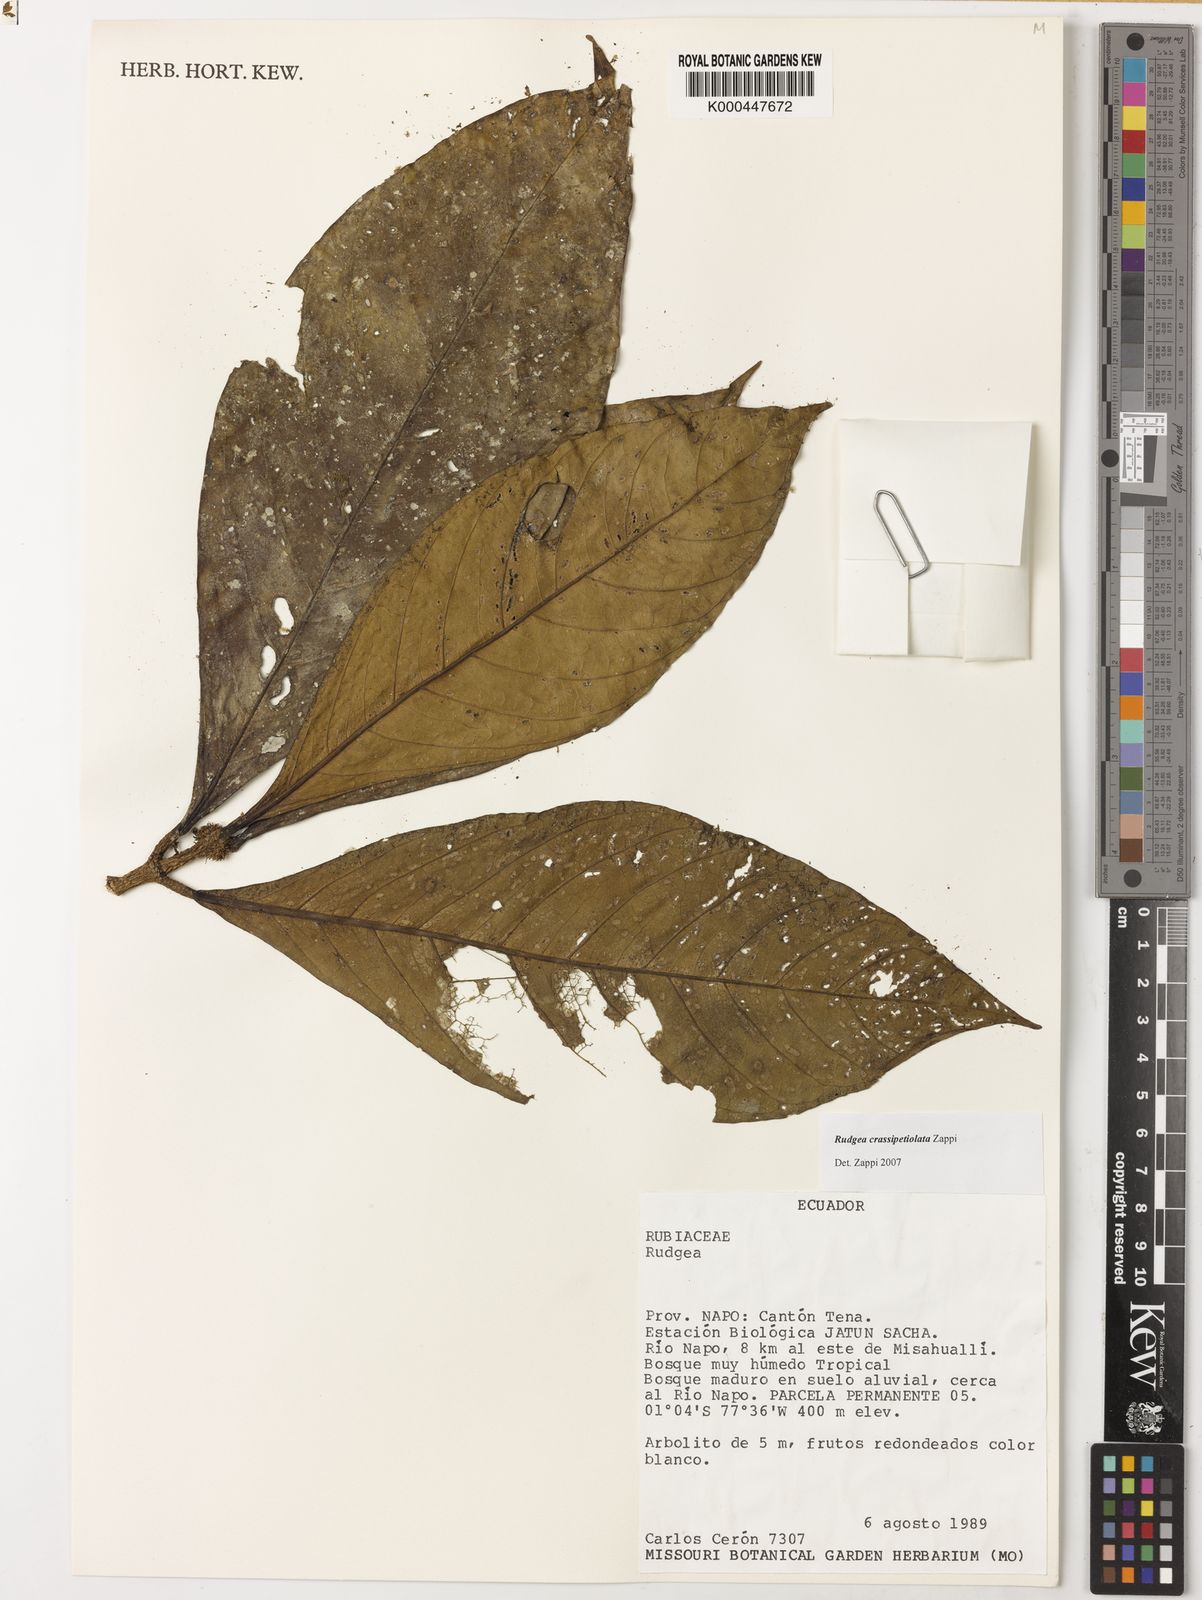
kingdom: Plantae
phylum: Tracheophyta
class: Magnoliopsida
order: Gentianales
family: Rubiaceae
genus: Rudgea
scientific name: Rudgea crassipetiolata
